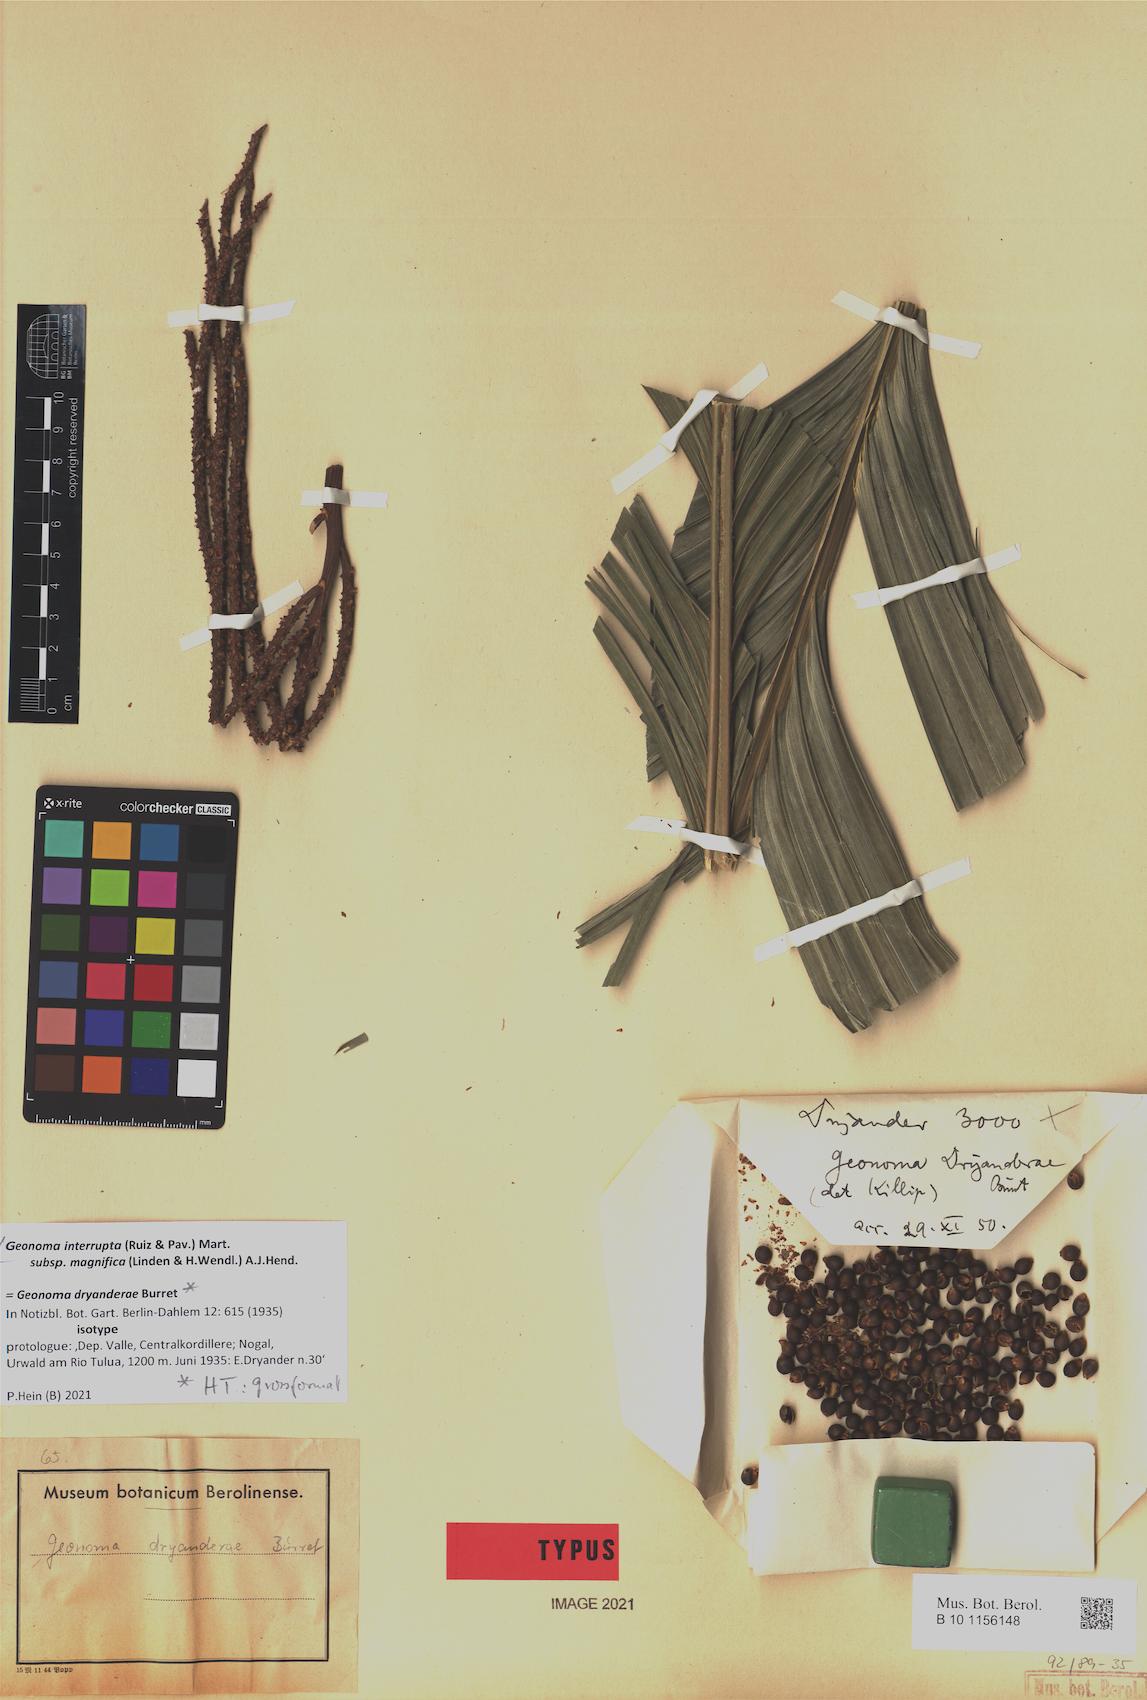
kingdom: Plantae
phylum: Tracheophyta
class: Liliopsida
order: Arecales
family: Arecaceae
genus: Geonoma
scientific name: Geonoma interrupta
